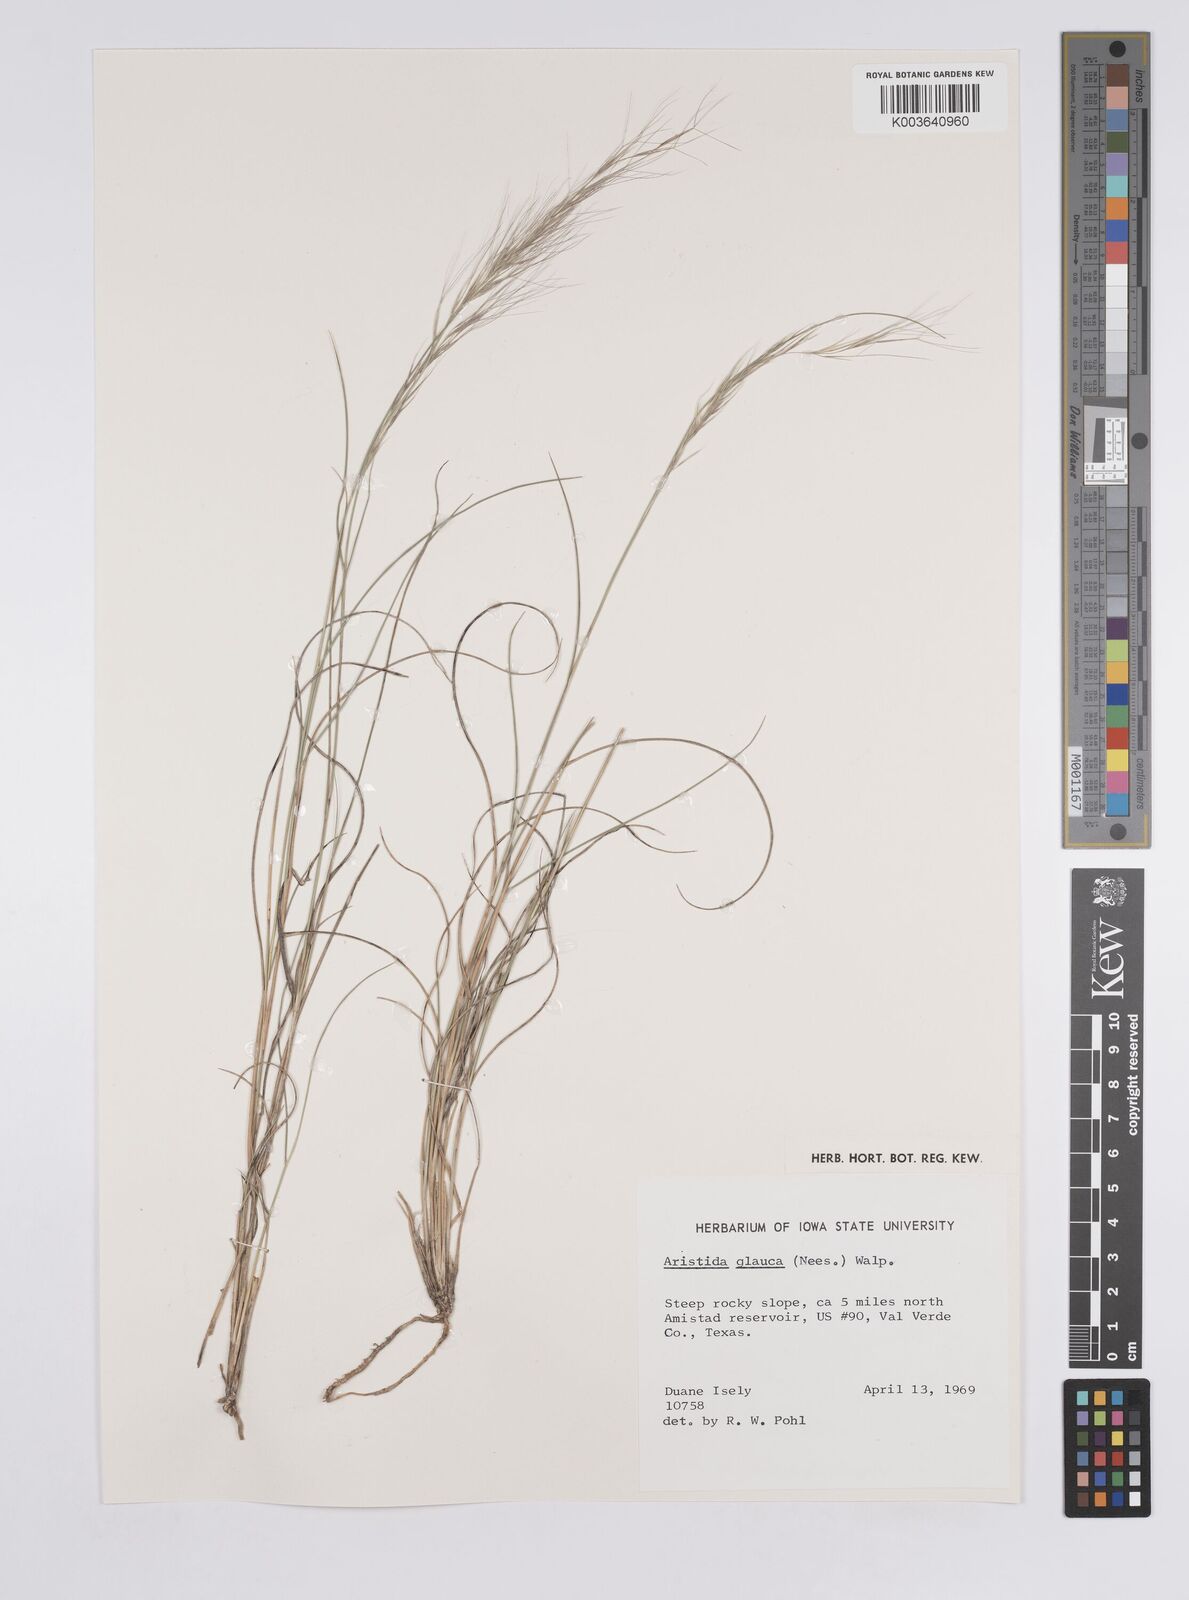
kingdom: Plantae
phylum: Tracheophyta
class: Liliopsida
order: Poales
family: Poaceae
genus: Aristida
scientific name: Aristida purpurea
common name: Purple threeawn
